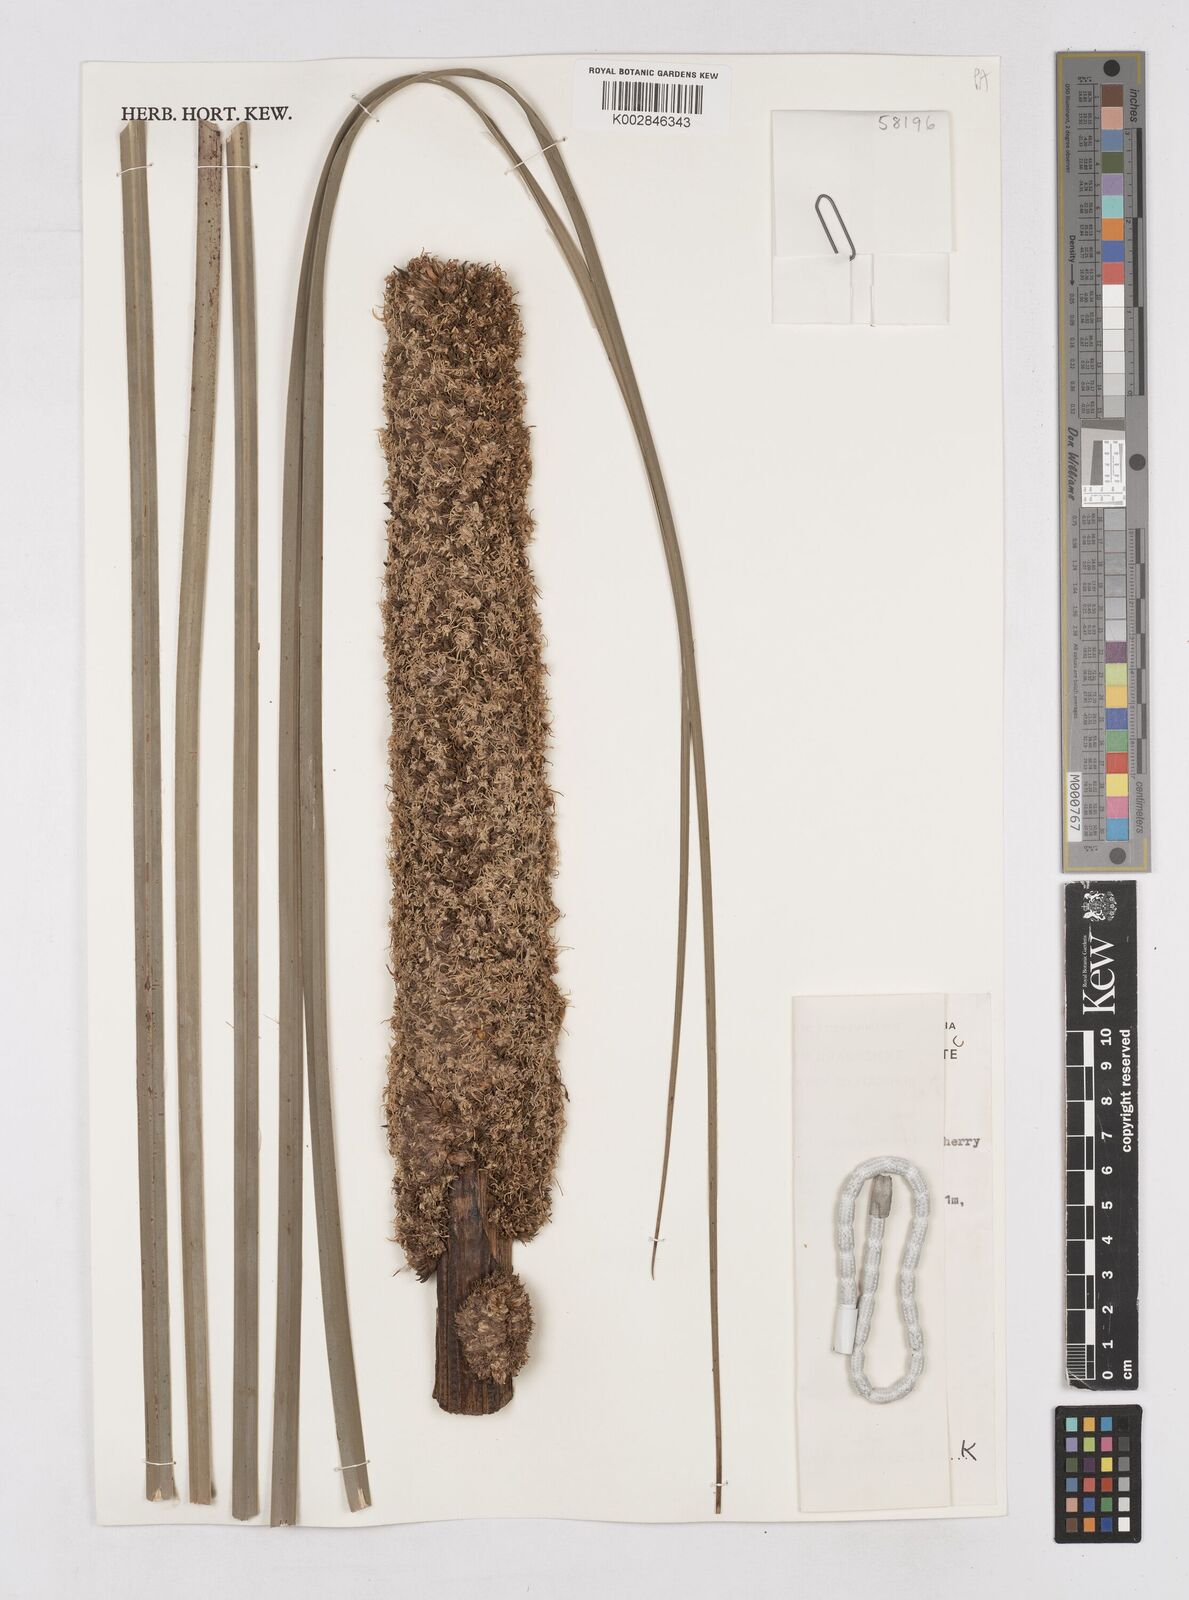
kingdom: Plantae
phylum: Tracheophyta
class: Liliopsida
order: Asparagales
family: Asphodelaceae
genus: Xanthorrhoea
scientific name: Xanthorrhoea semiplana
